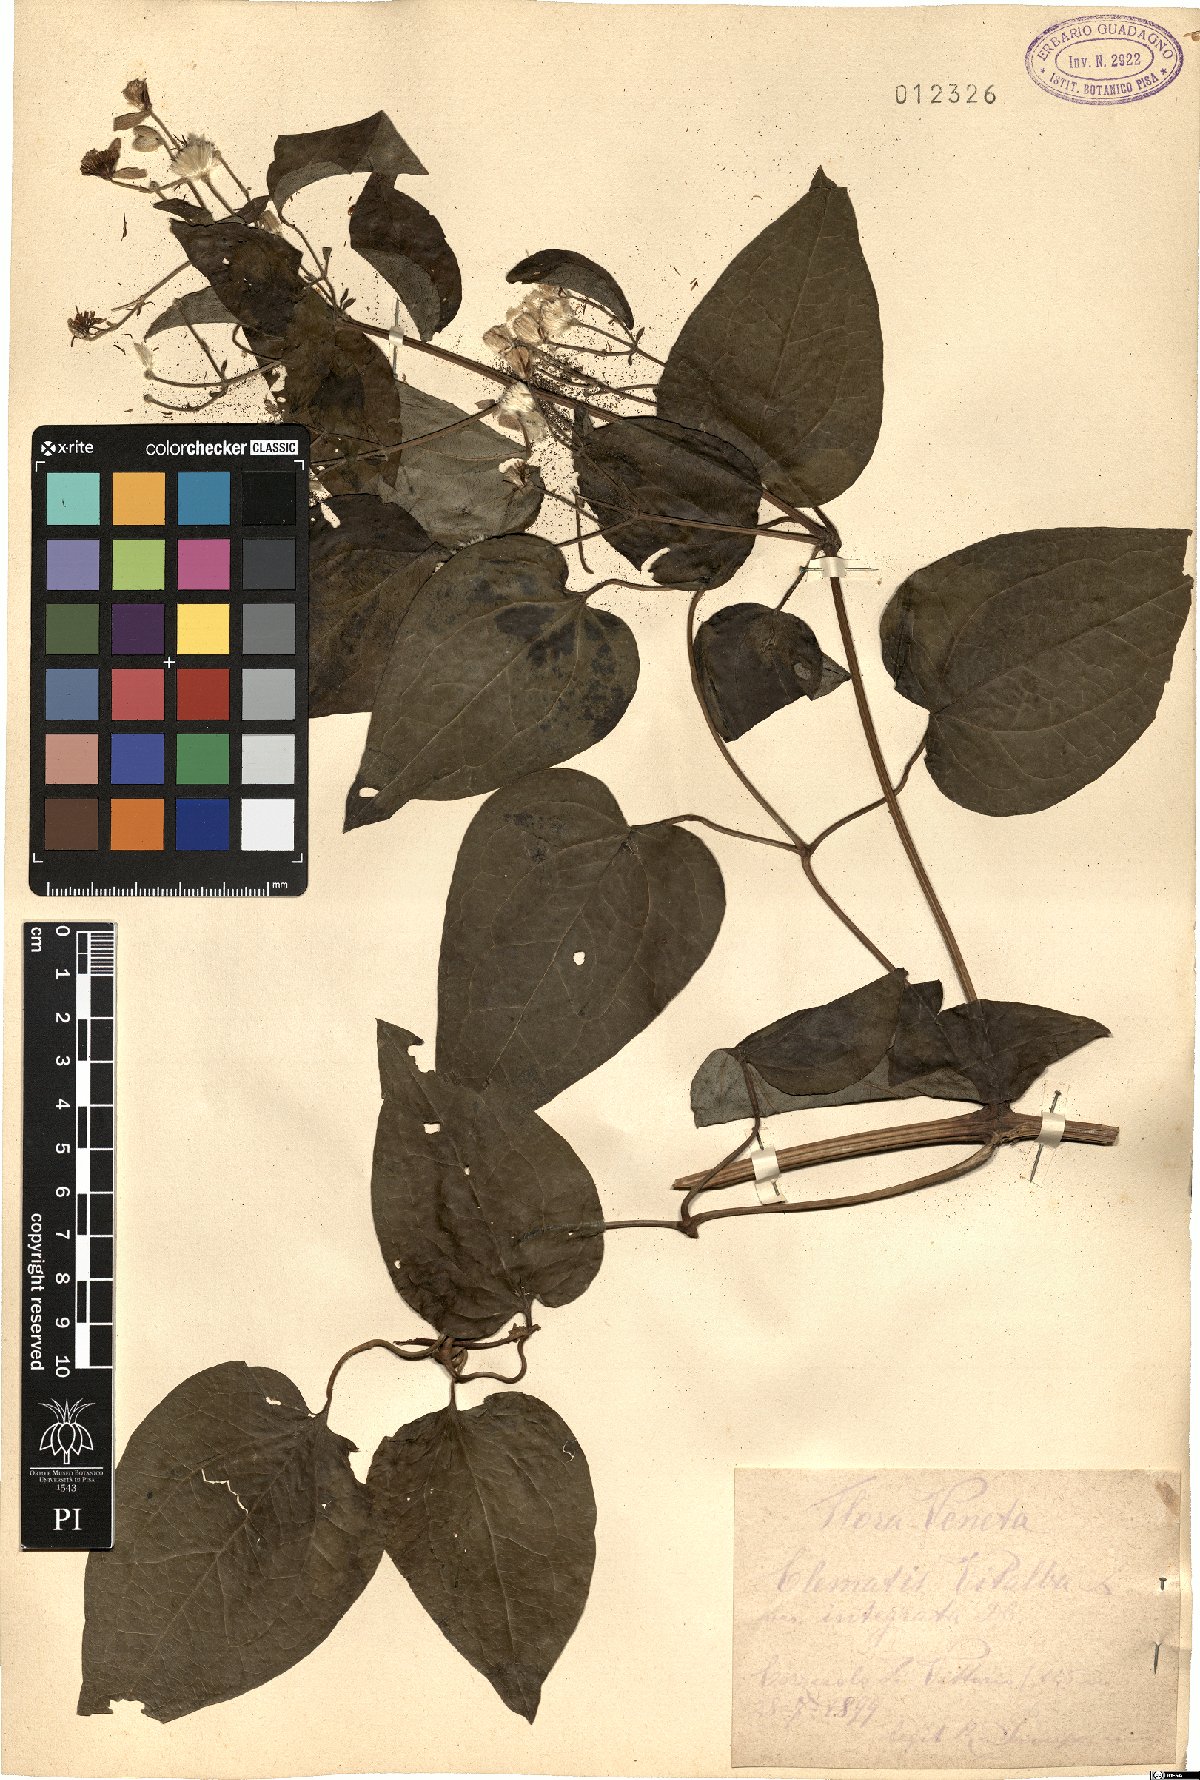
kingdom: Plantae
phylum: Tracheophyta
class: Magnoliopsida
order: Ranunculales
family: Ranunculaceae
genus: Clematis
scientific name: Clematis vitalba
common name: Evergreen clematis
